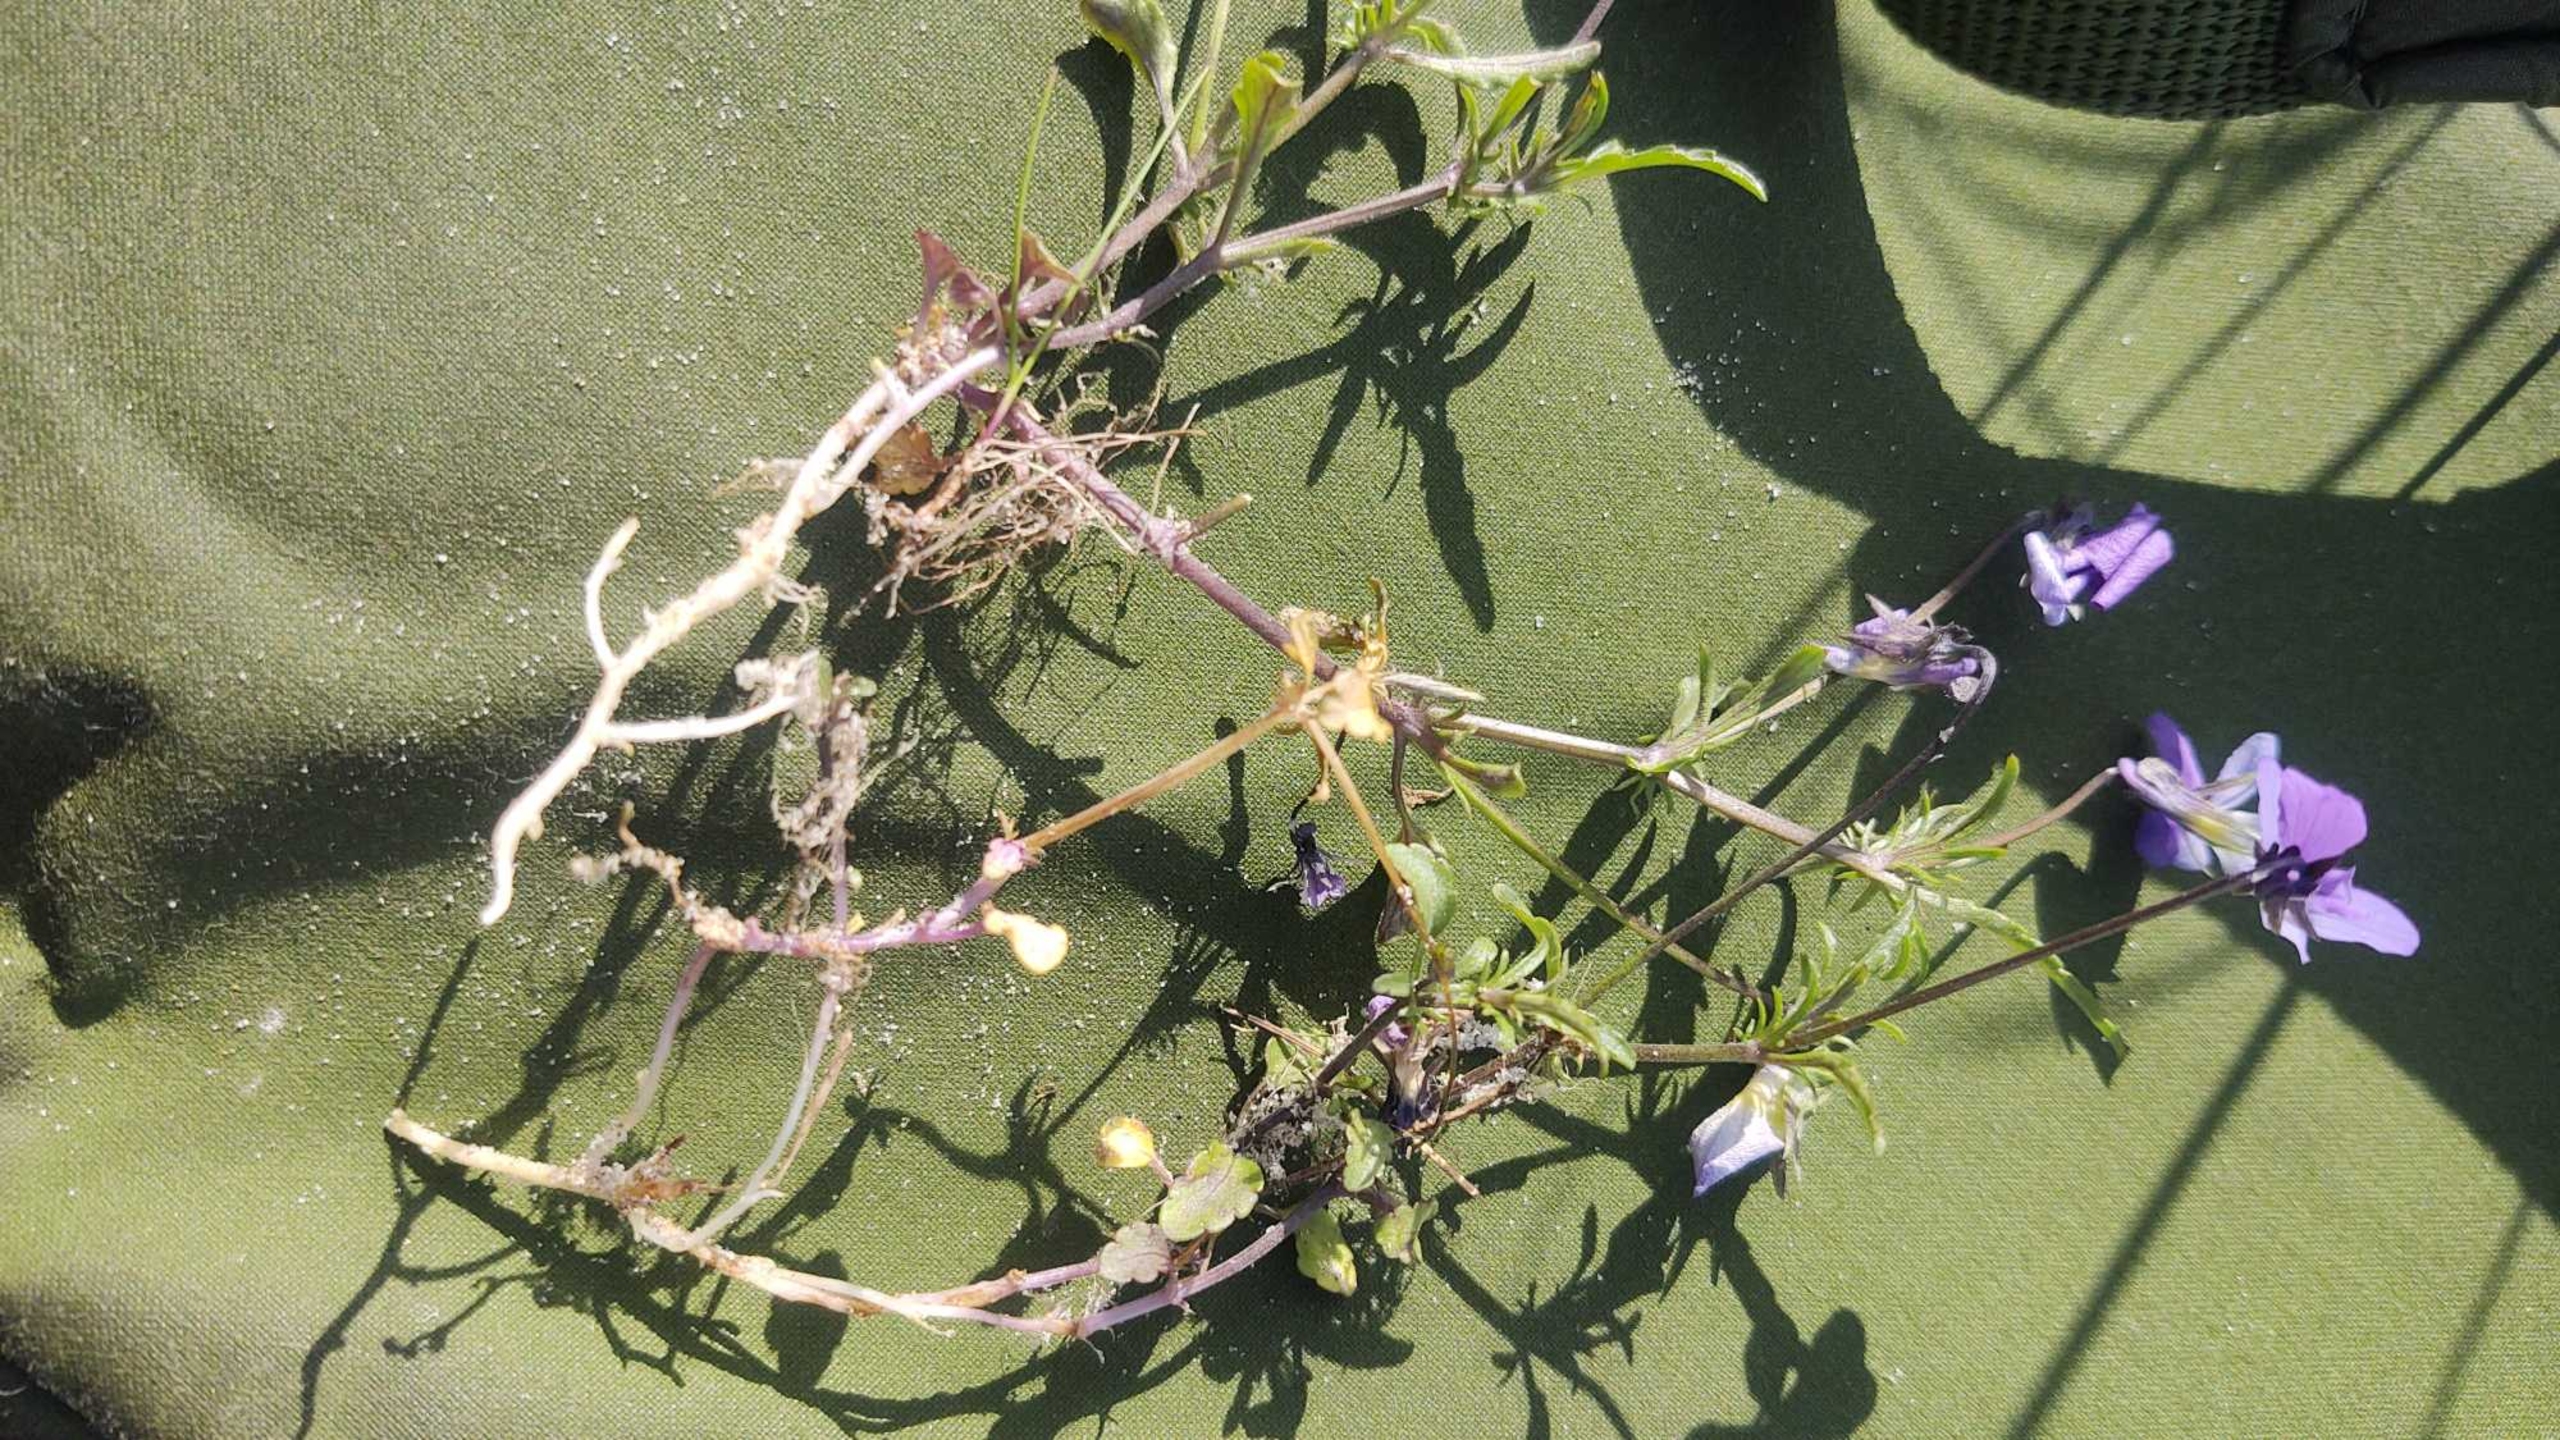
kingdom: Plantae
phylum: Tracheophyta
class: Magnoliopsida
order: Malpighiales
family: Violaceae
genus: Viola
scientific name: Viola tricolor
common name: Klit-stedmoderblomst
